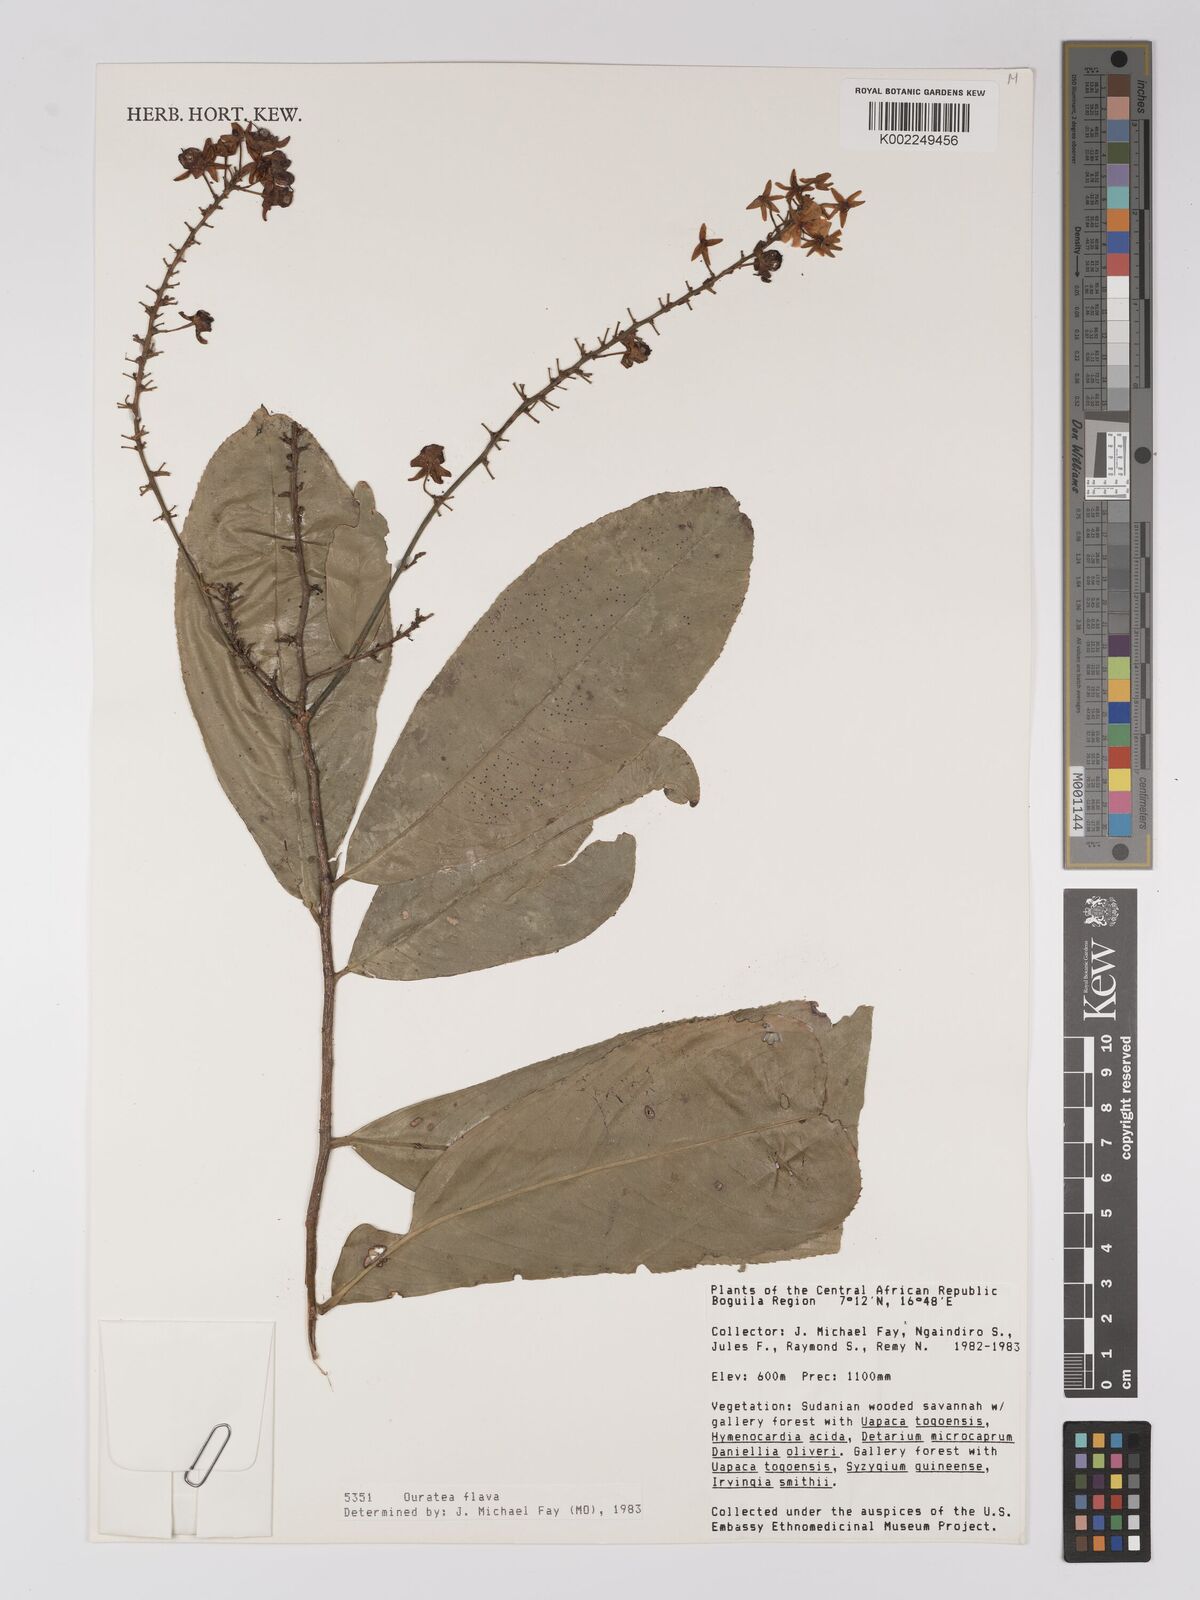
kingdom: Plantae
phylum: Tracheophyta
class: Magnoliopsida
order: Malpighiales
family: Ochnaceae
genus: Campylospermum
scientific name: Campylospermum flavum
